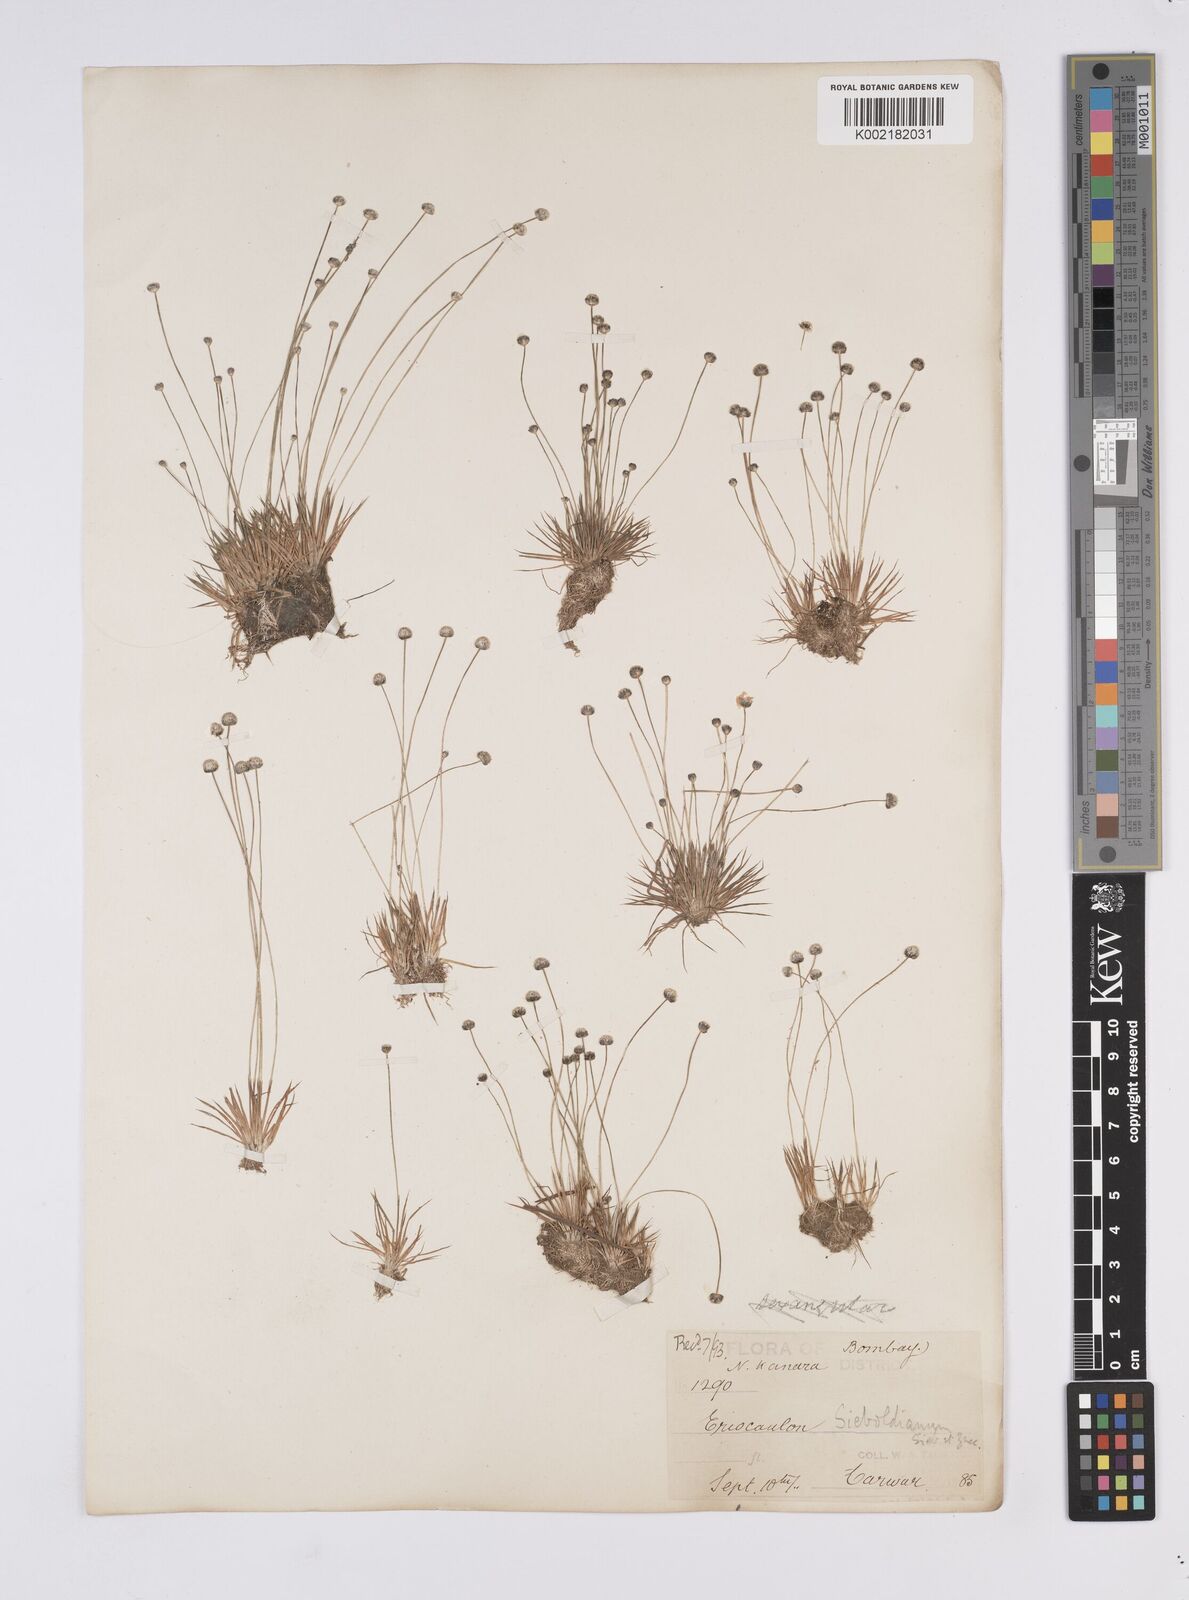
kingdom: Plantae
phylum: Tracheophyta
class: Liliopsida
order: Poales
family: Eriocaulaceae
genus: Eriocaulon
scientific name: Eriocaulon cinereum
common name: Ashy pipewort
